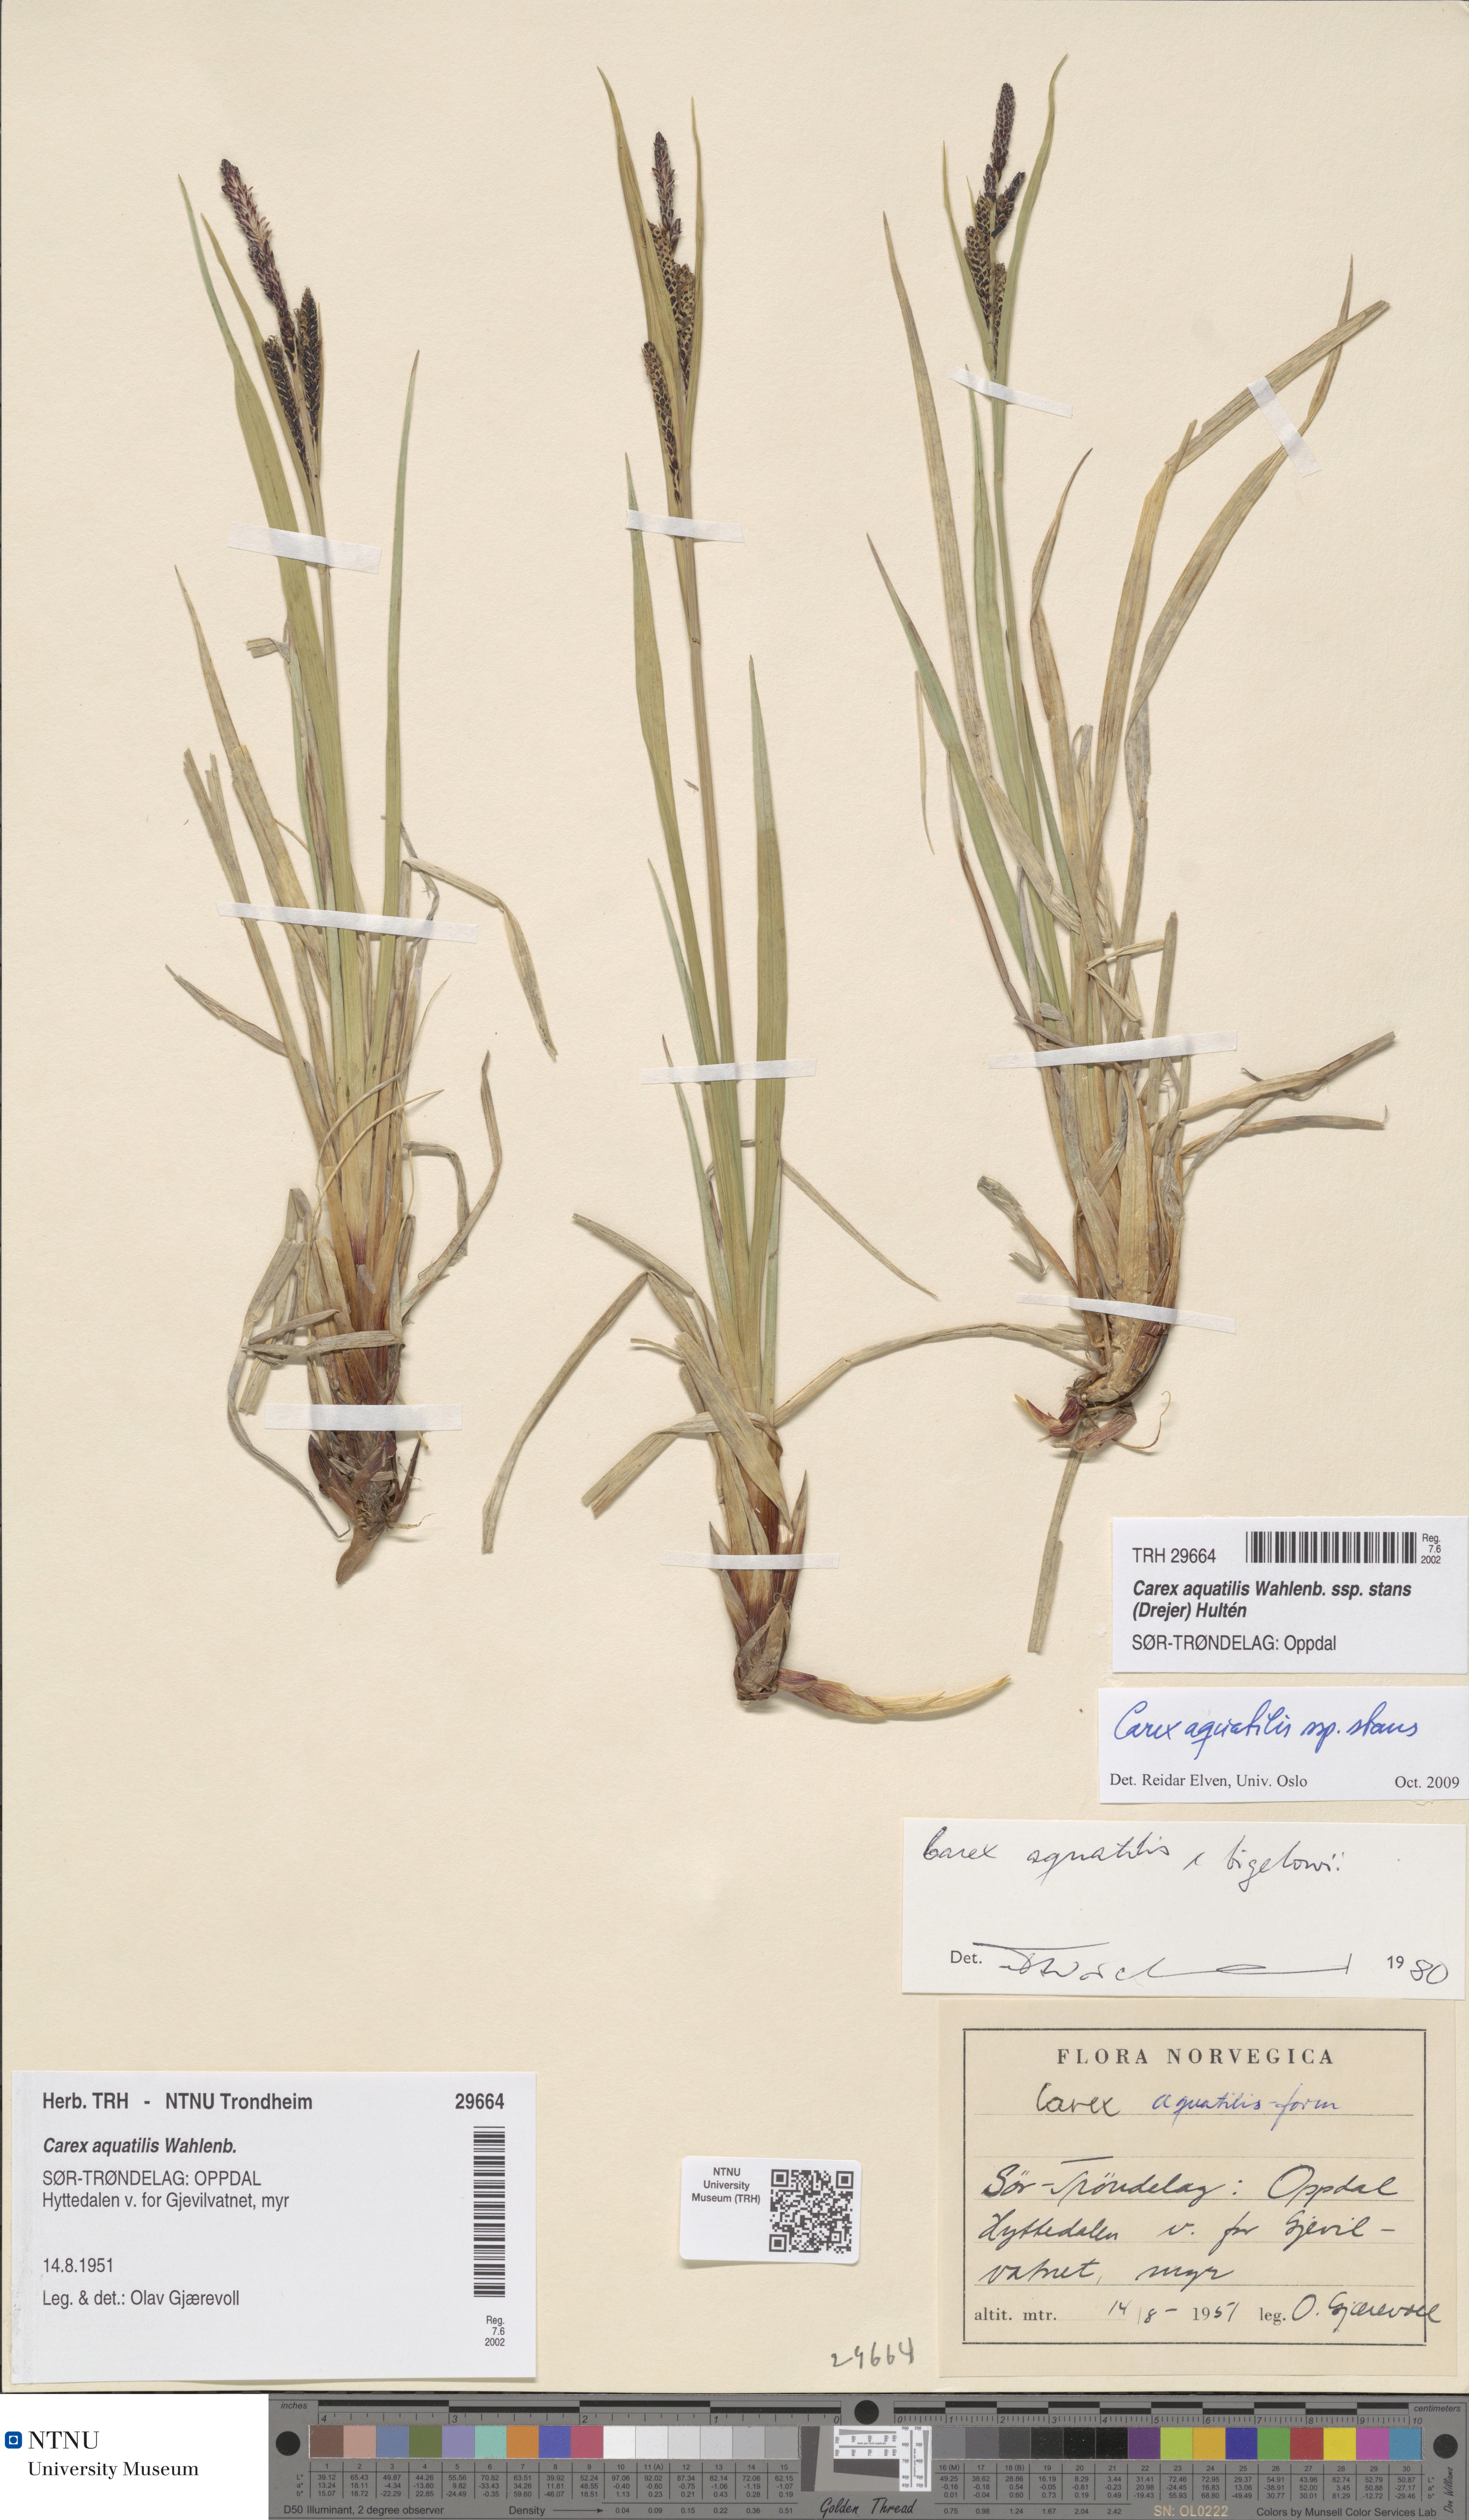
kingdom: Plantae
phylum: Tracheophyta
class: Liliopsida
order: Poales
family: Cyperaceae
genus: Carex
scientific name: Carex aquatilis
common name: Water sedge
